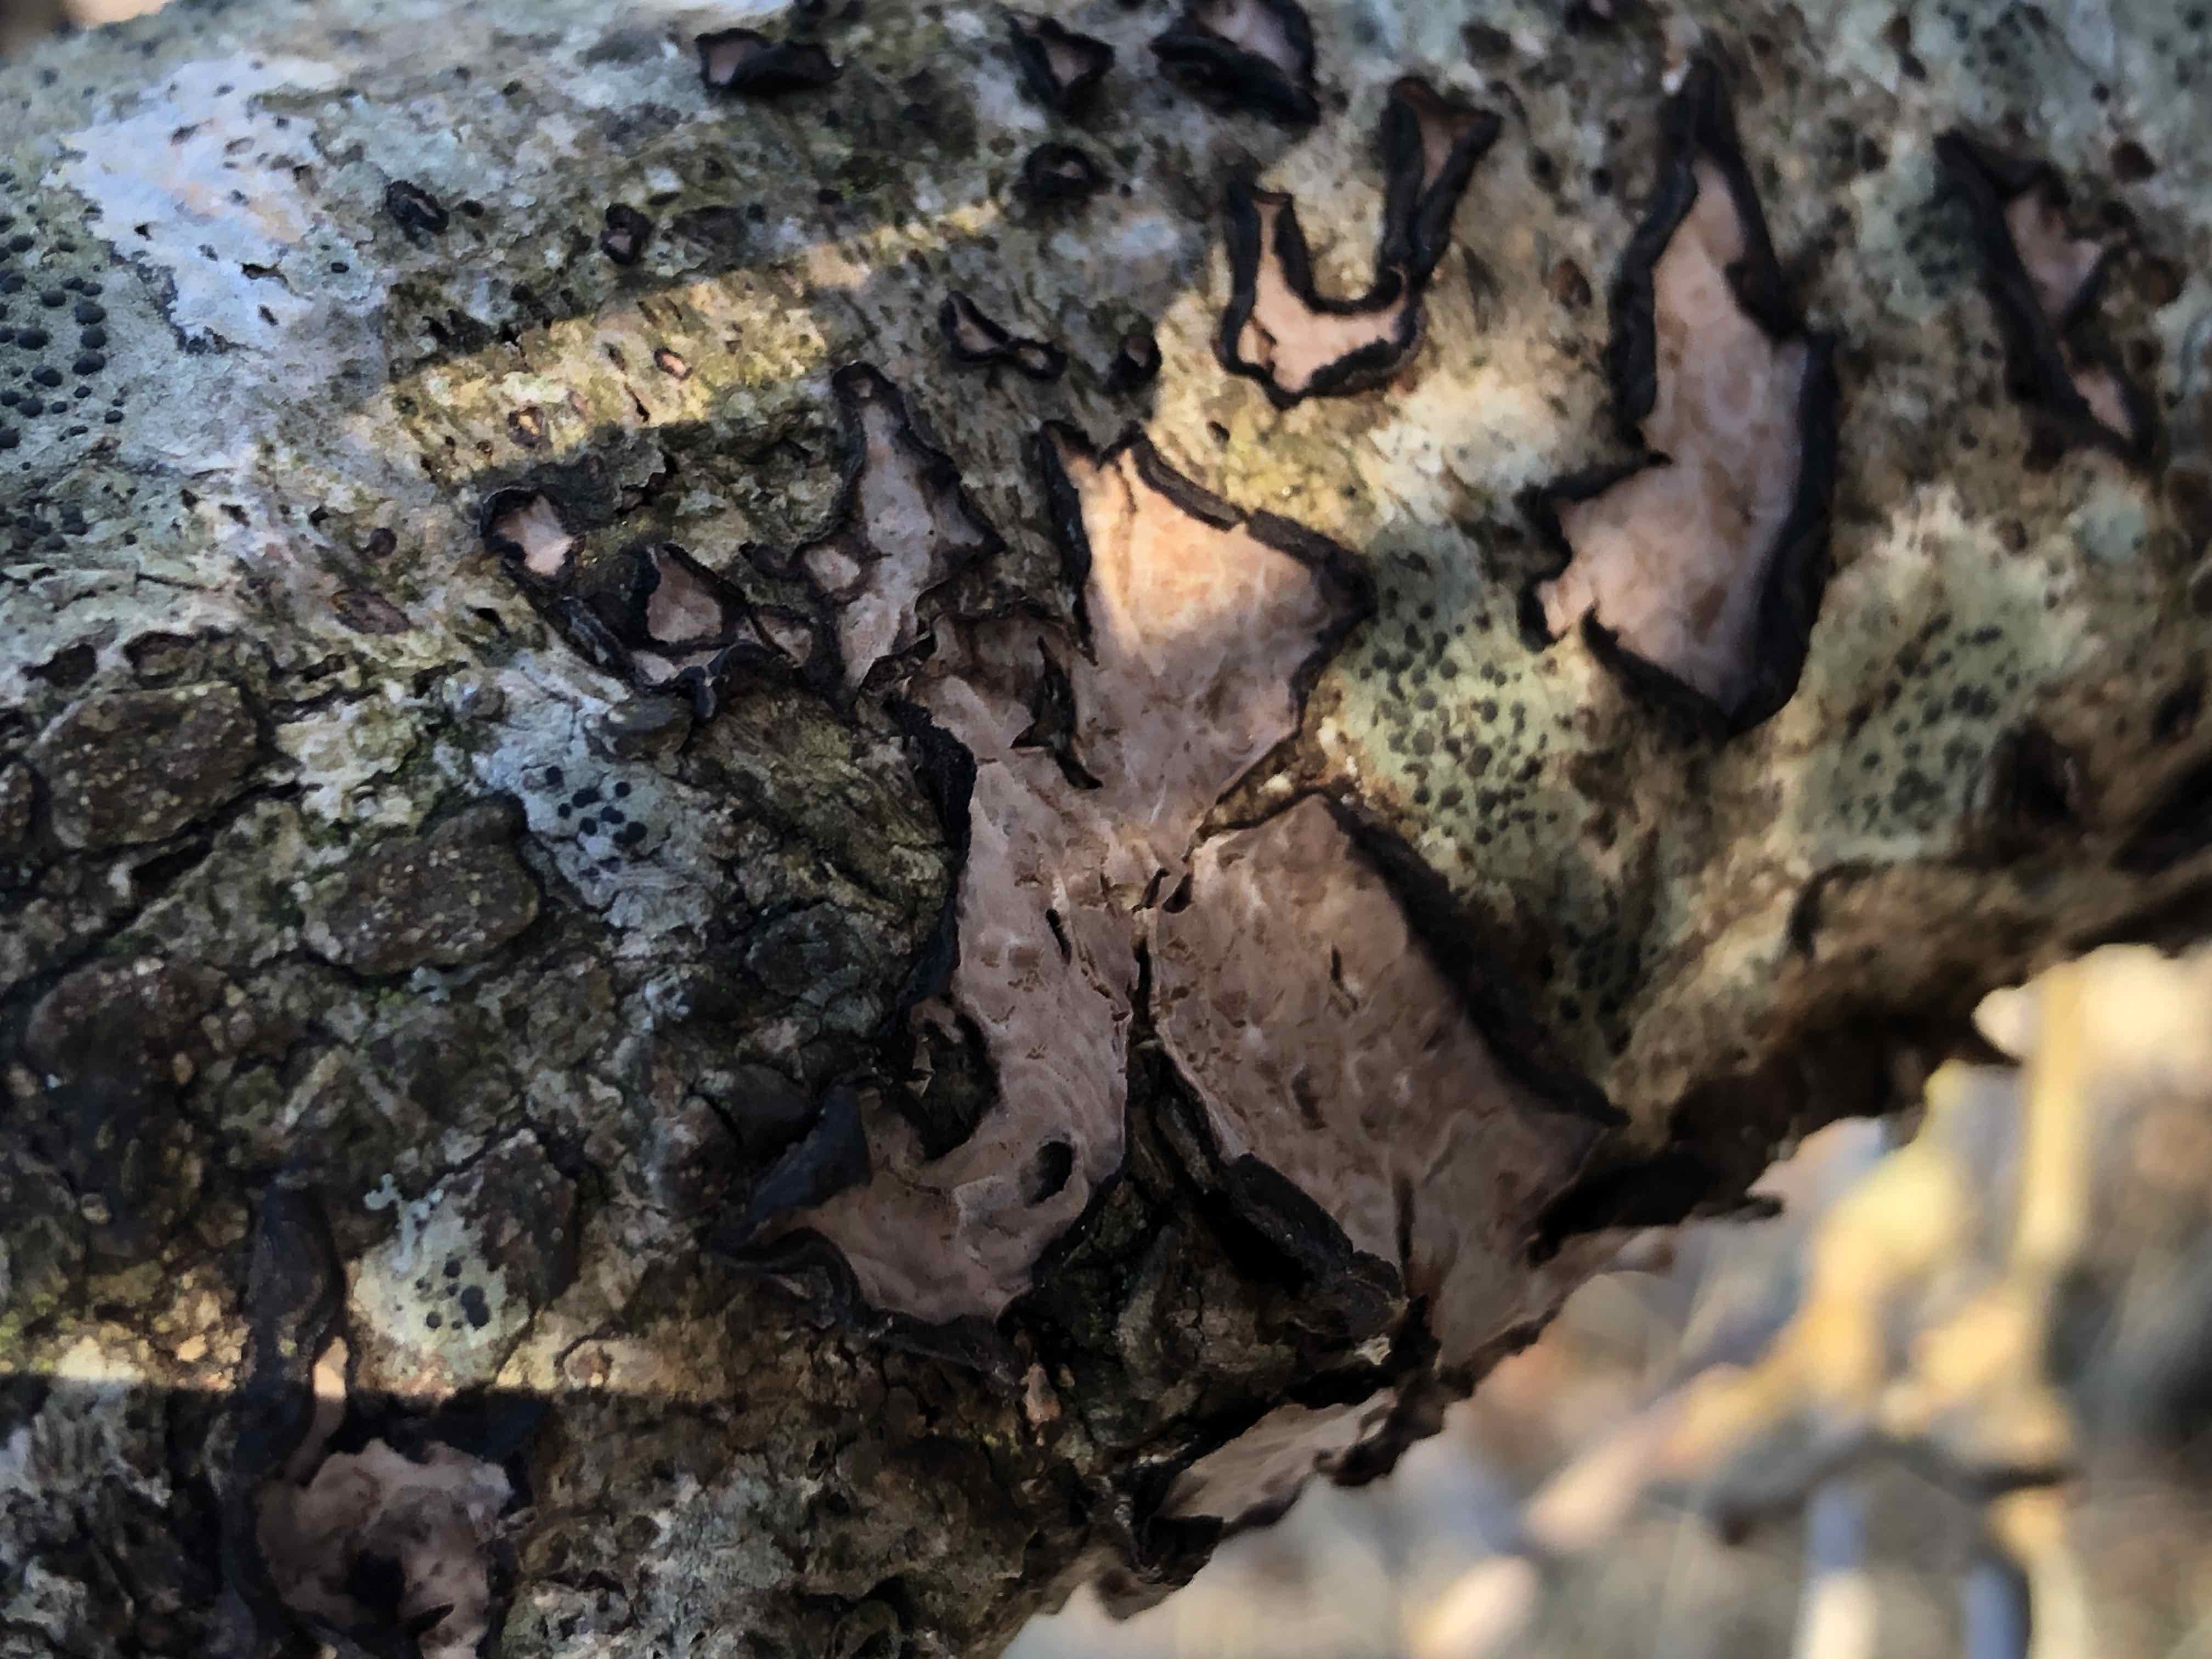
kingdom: Fungi
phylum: Basidiomycota
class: Agaricomycetes
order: Russulales
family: Peniophoraceae
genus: Peniophora
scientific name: Peniophora quercina
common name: ege-voksskind
